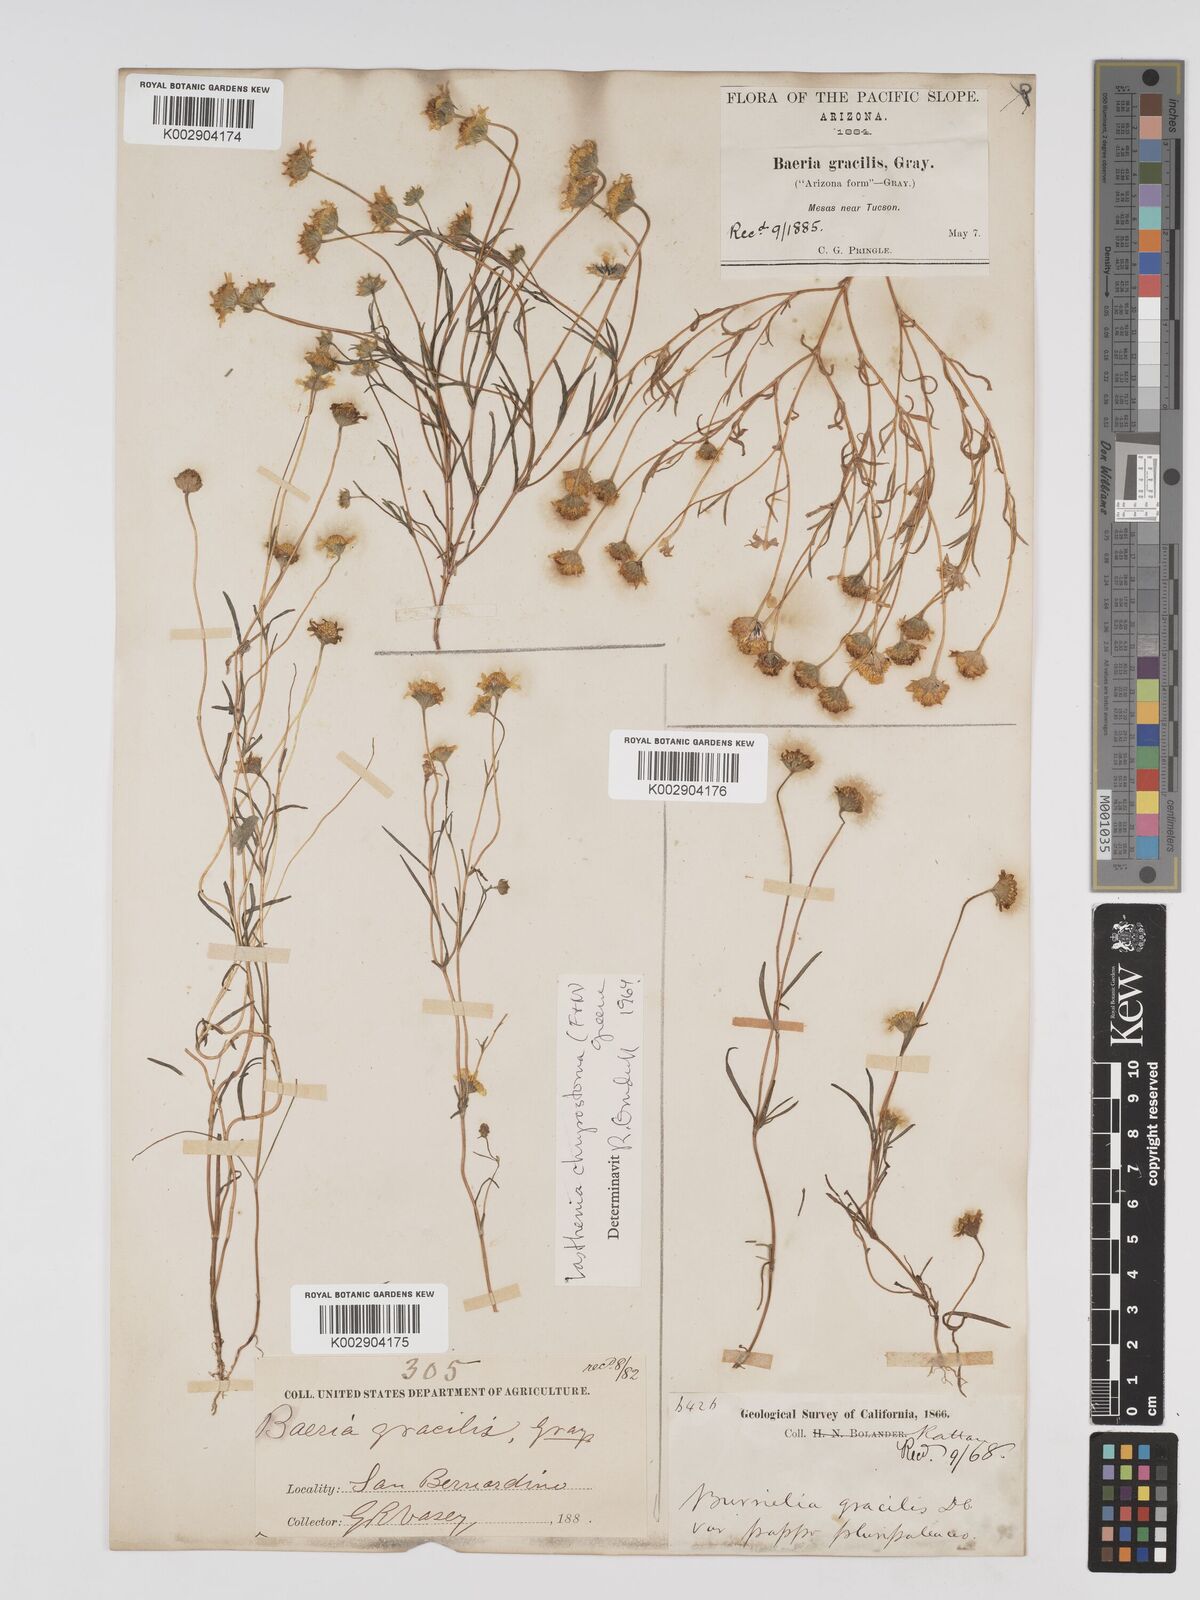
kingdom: Plantae
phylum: Tracheophyta
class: Magnoliopsida
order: Asterales
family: Asteraceae
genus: Lasthenia
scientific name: Lasthenia californica
